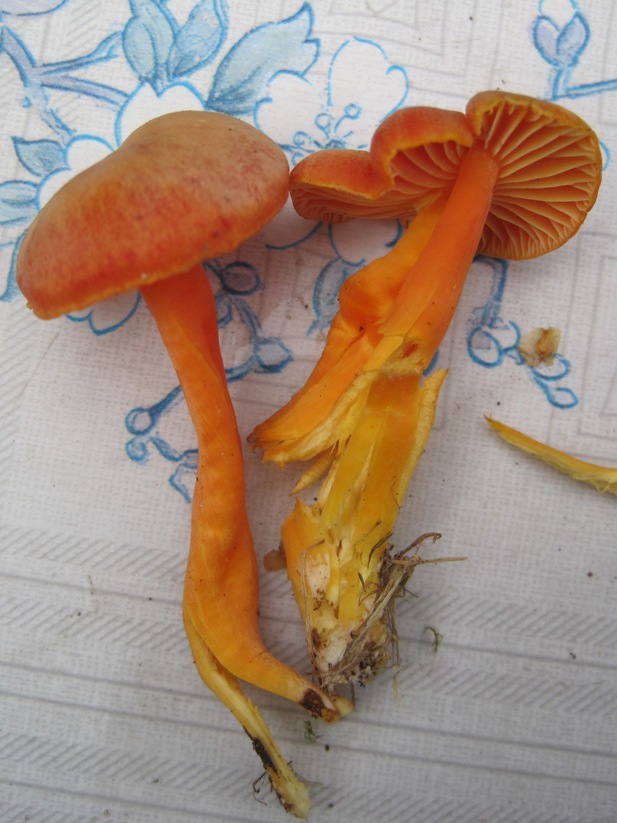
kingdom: Fungi
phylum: Basidiomycota
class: Agaricomycetes
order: Agaricales
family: Hygrophoraceae
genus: Hygrocybe
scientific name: Hygrocybe miniata
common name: mønje-vokshat
